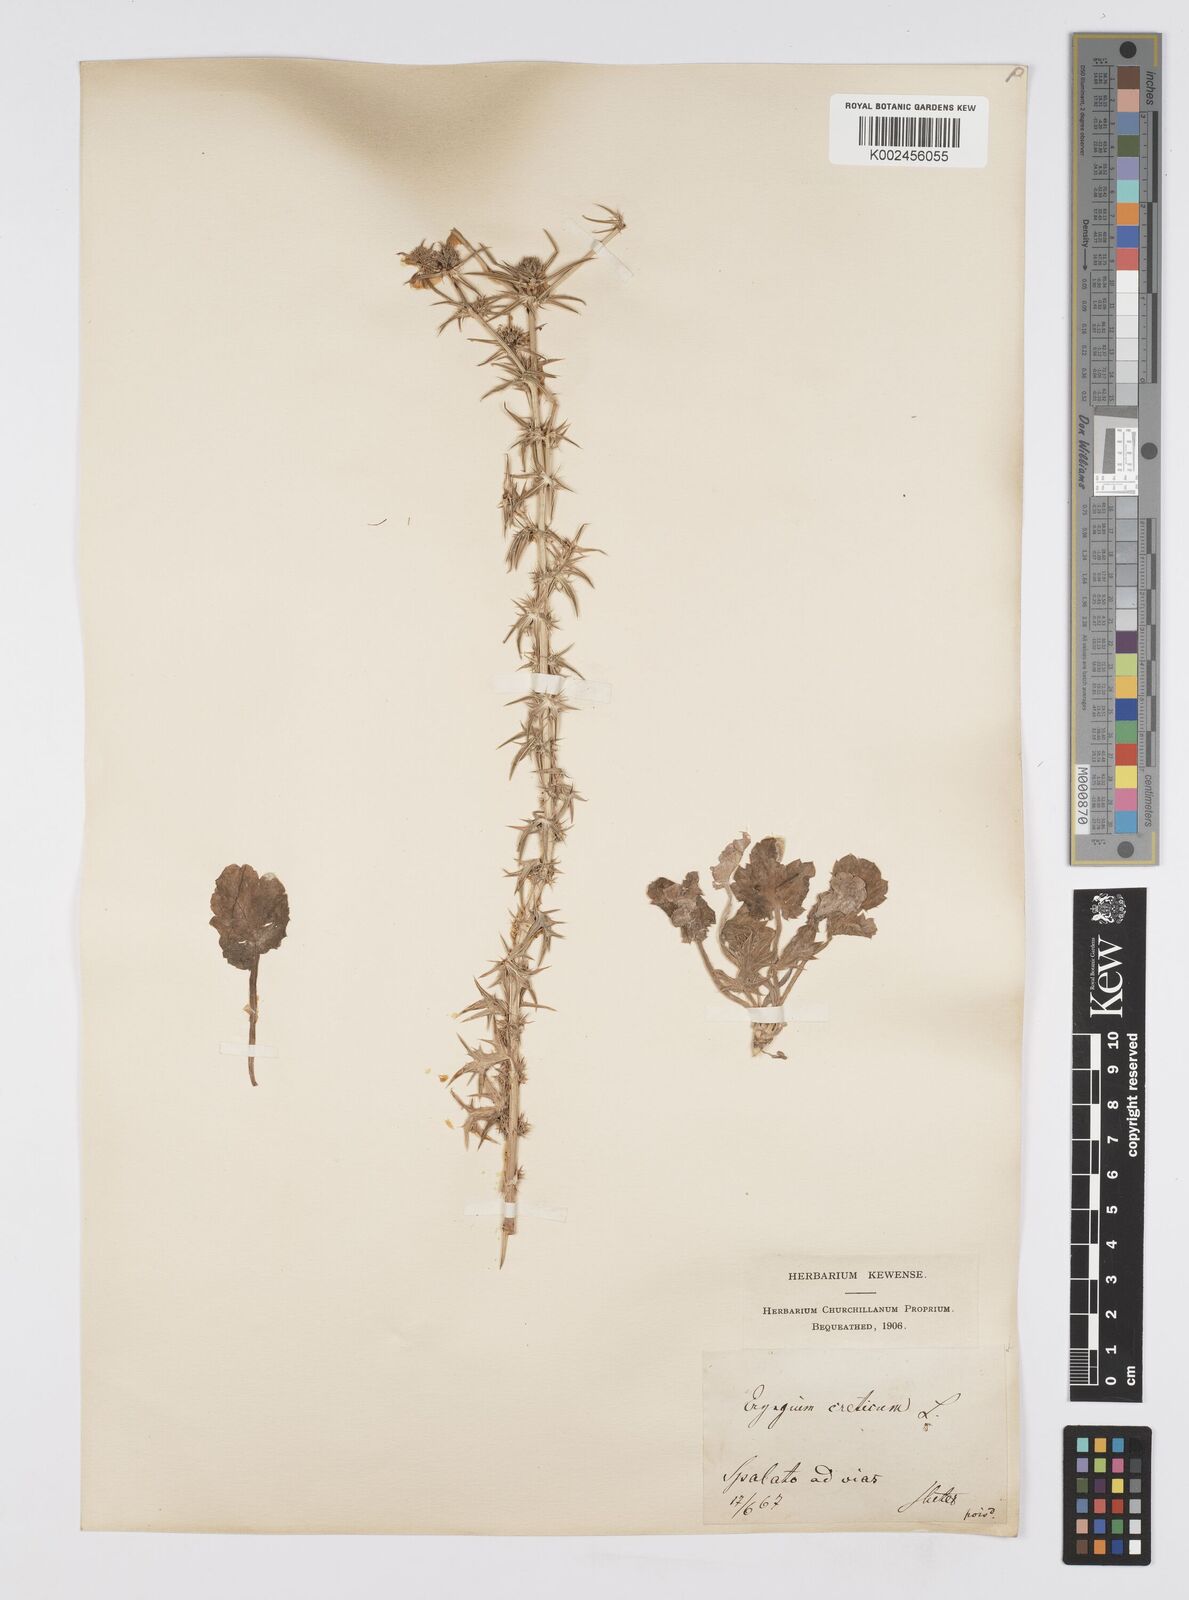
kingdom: Plantae
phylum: Tracheophyta
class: Magnoliopsida
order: Apiales
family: Apiaceae
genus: Eryngium
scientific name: Eryngium creticum
